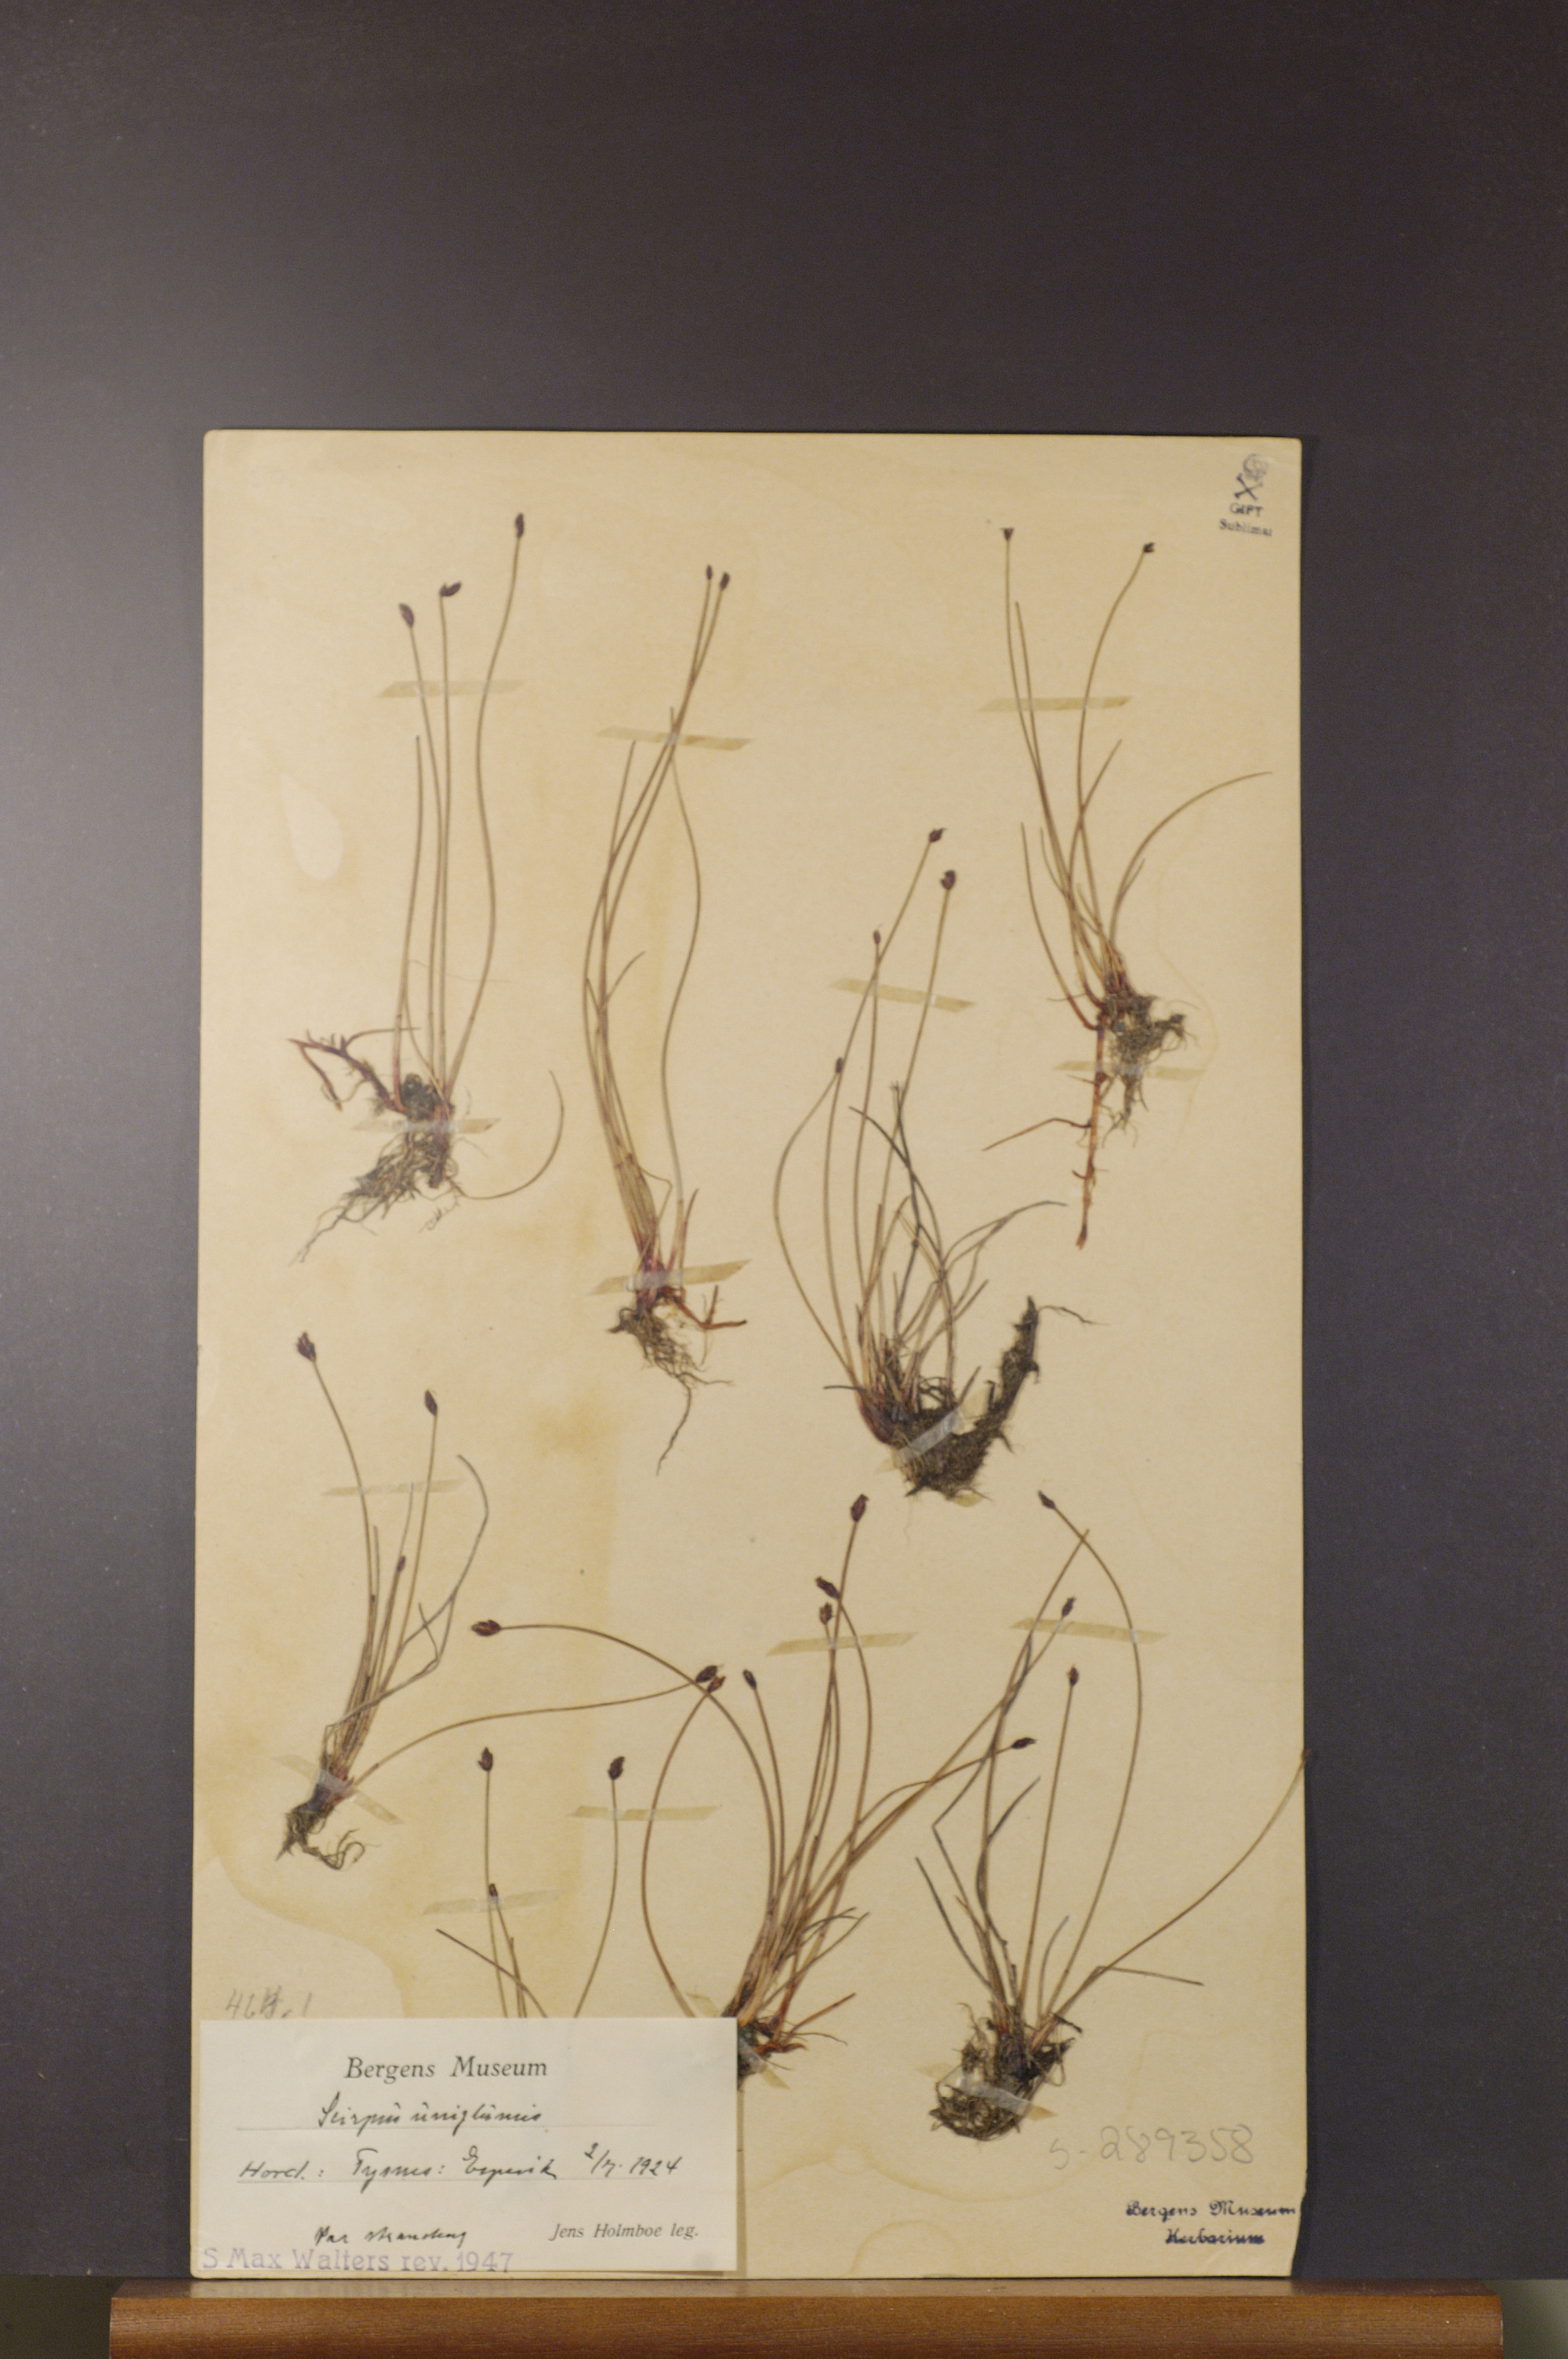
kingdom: Plantae
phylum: Tracheophyta
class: Liliopsida
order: Poales
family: Cyperaceae
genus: Eleocharis
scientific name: Eleocharis uniglumis
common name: Slender spike-rush
